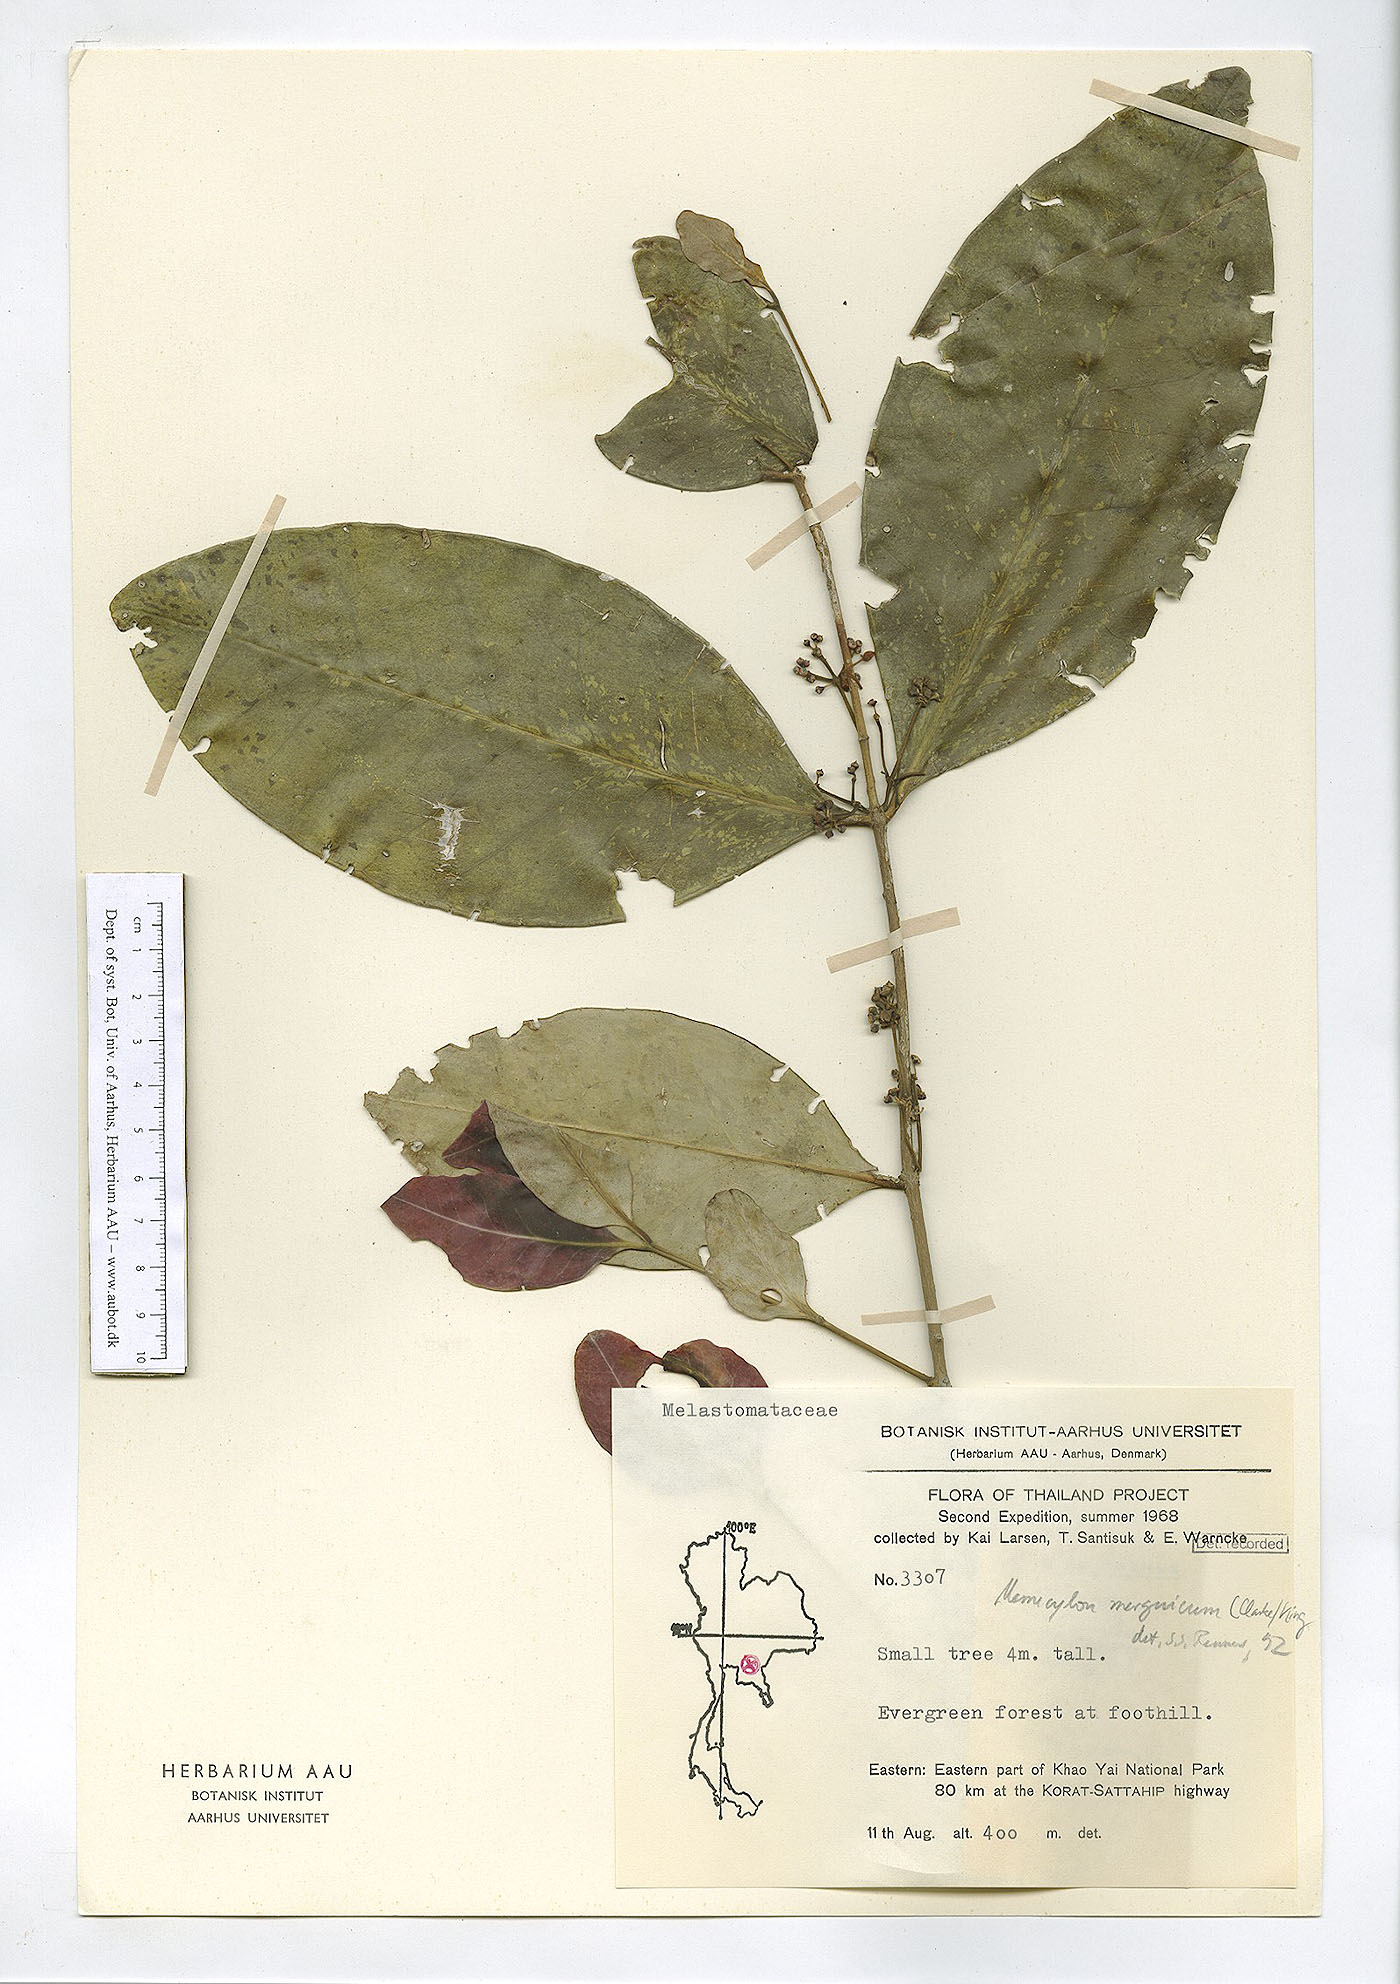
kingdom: Plantae
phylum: Tracheophyta
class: Magnoliopsida
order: Myrtales
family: Melastomataceae
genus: Memecylon
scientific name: Memecylon elegans
